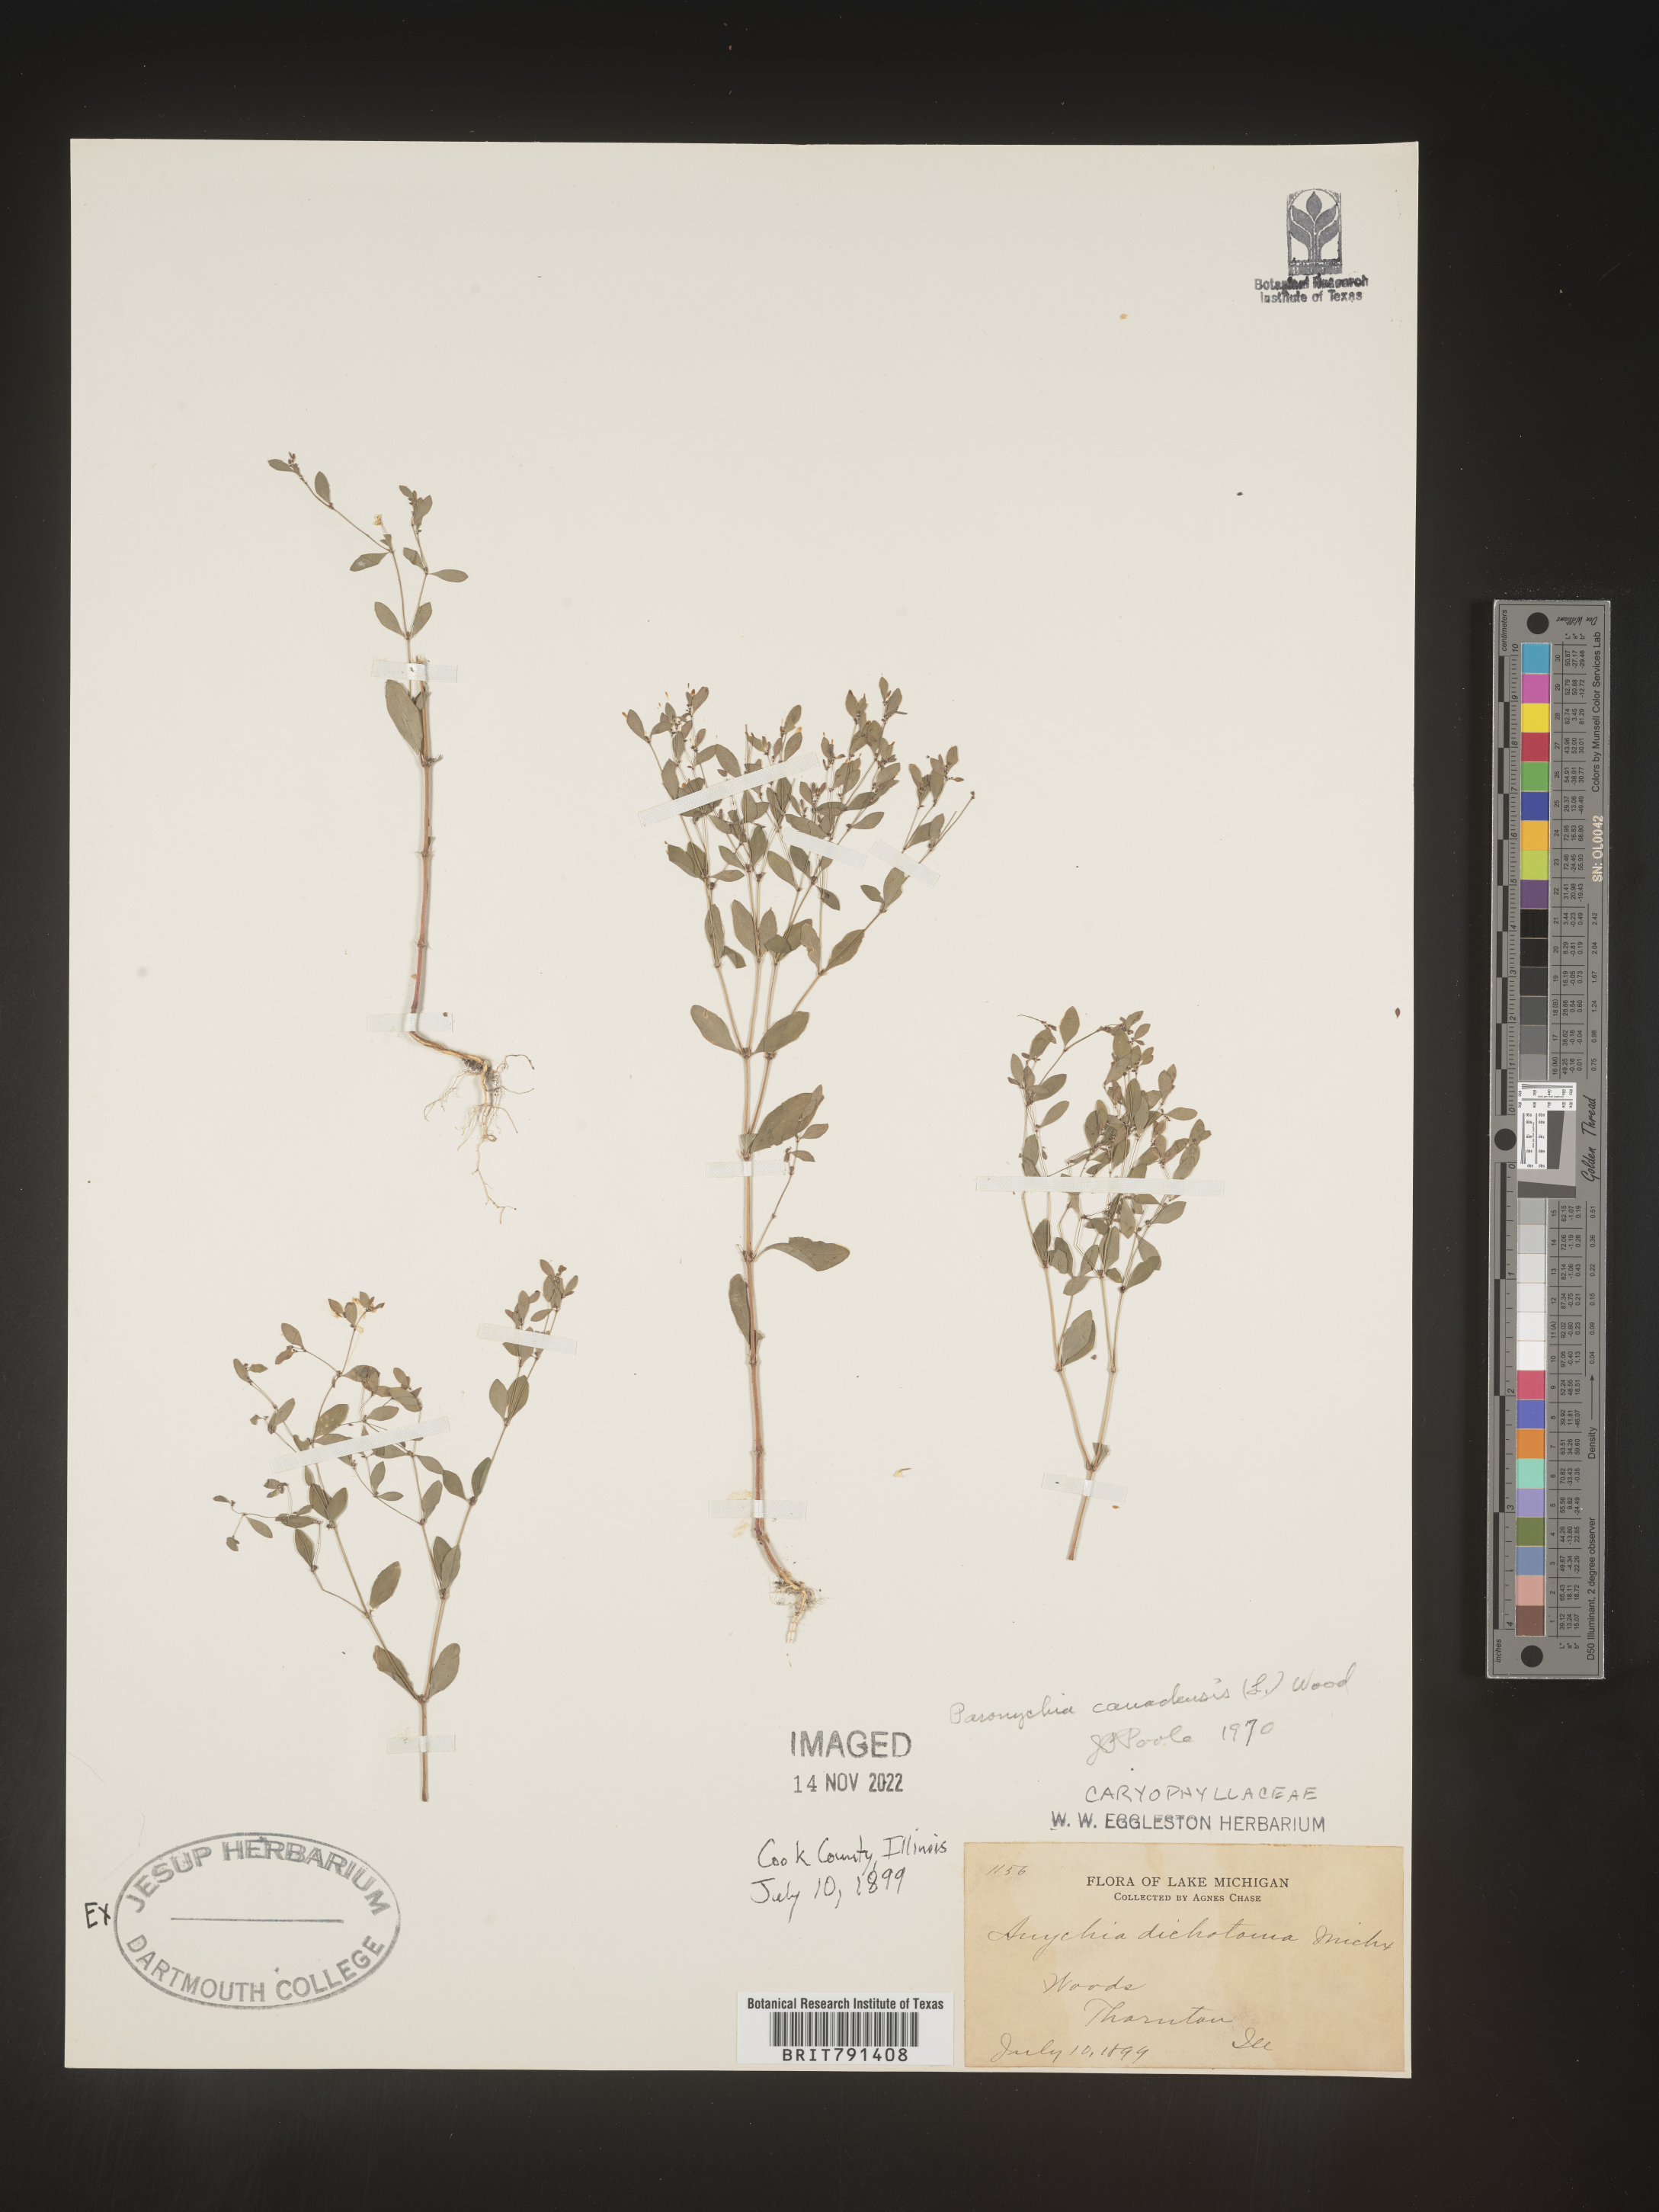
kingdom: Plantae
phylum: Tracheophyta
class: Magnoliopsida
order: Caryophyllales
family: Caryophyllaceae
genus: Paronychia
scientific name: Paronychia canadensis
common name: Canada forked nailwort
